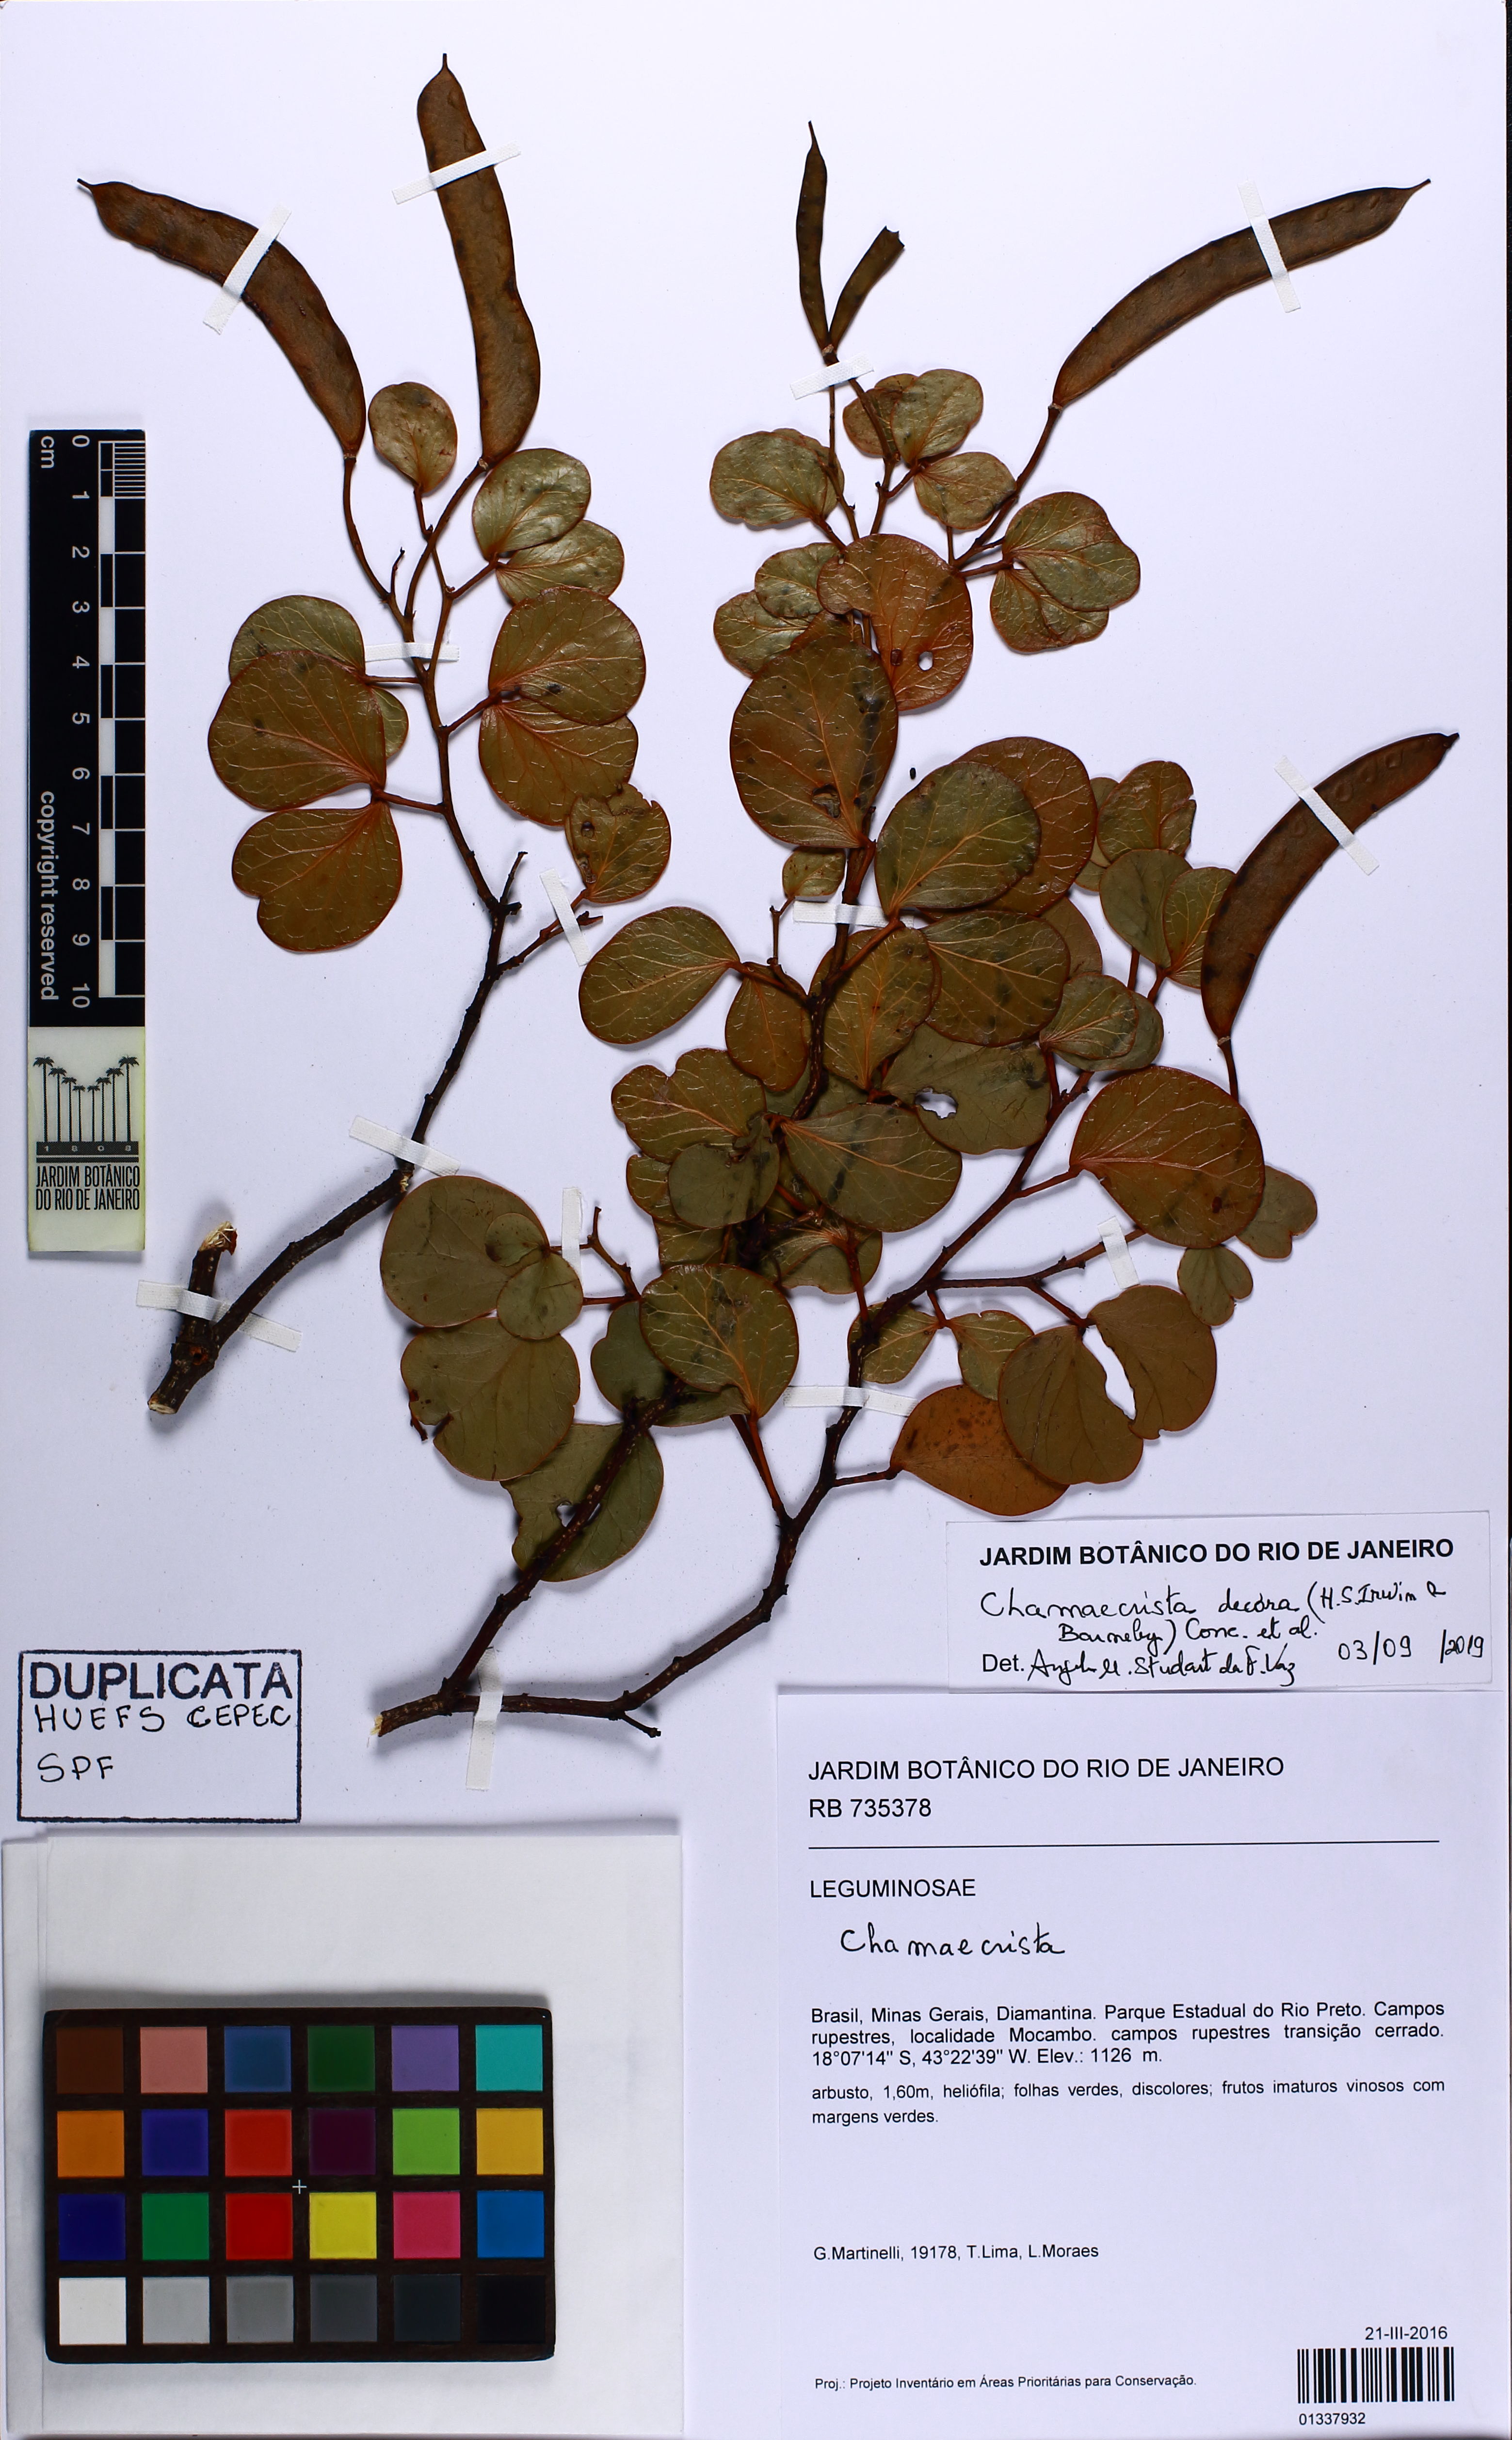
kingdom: Plantae
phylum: Tracheophyta
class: Magnoliopsida
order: Fabales
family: Fabaceae
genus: Chamaecrista
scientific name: Chamaecrista decora
